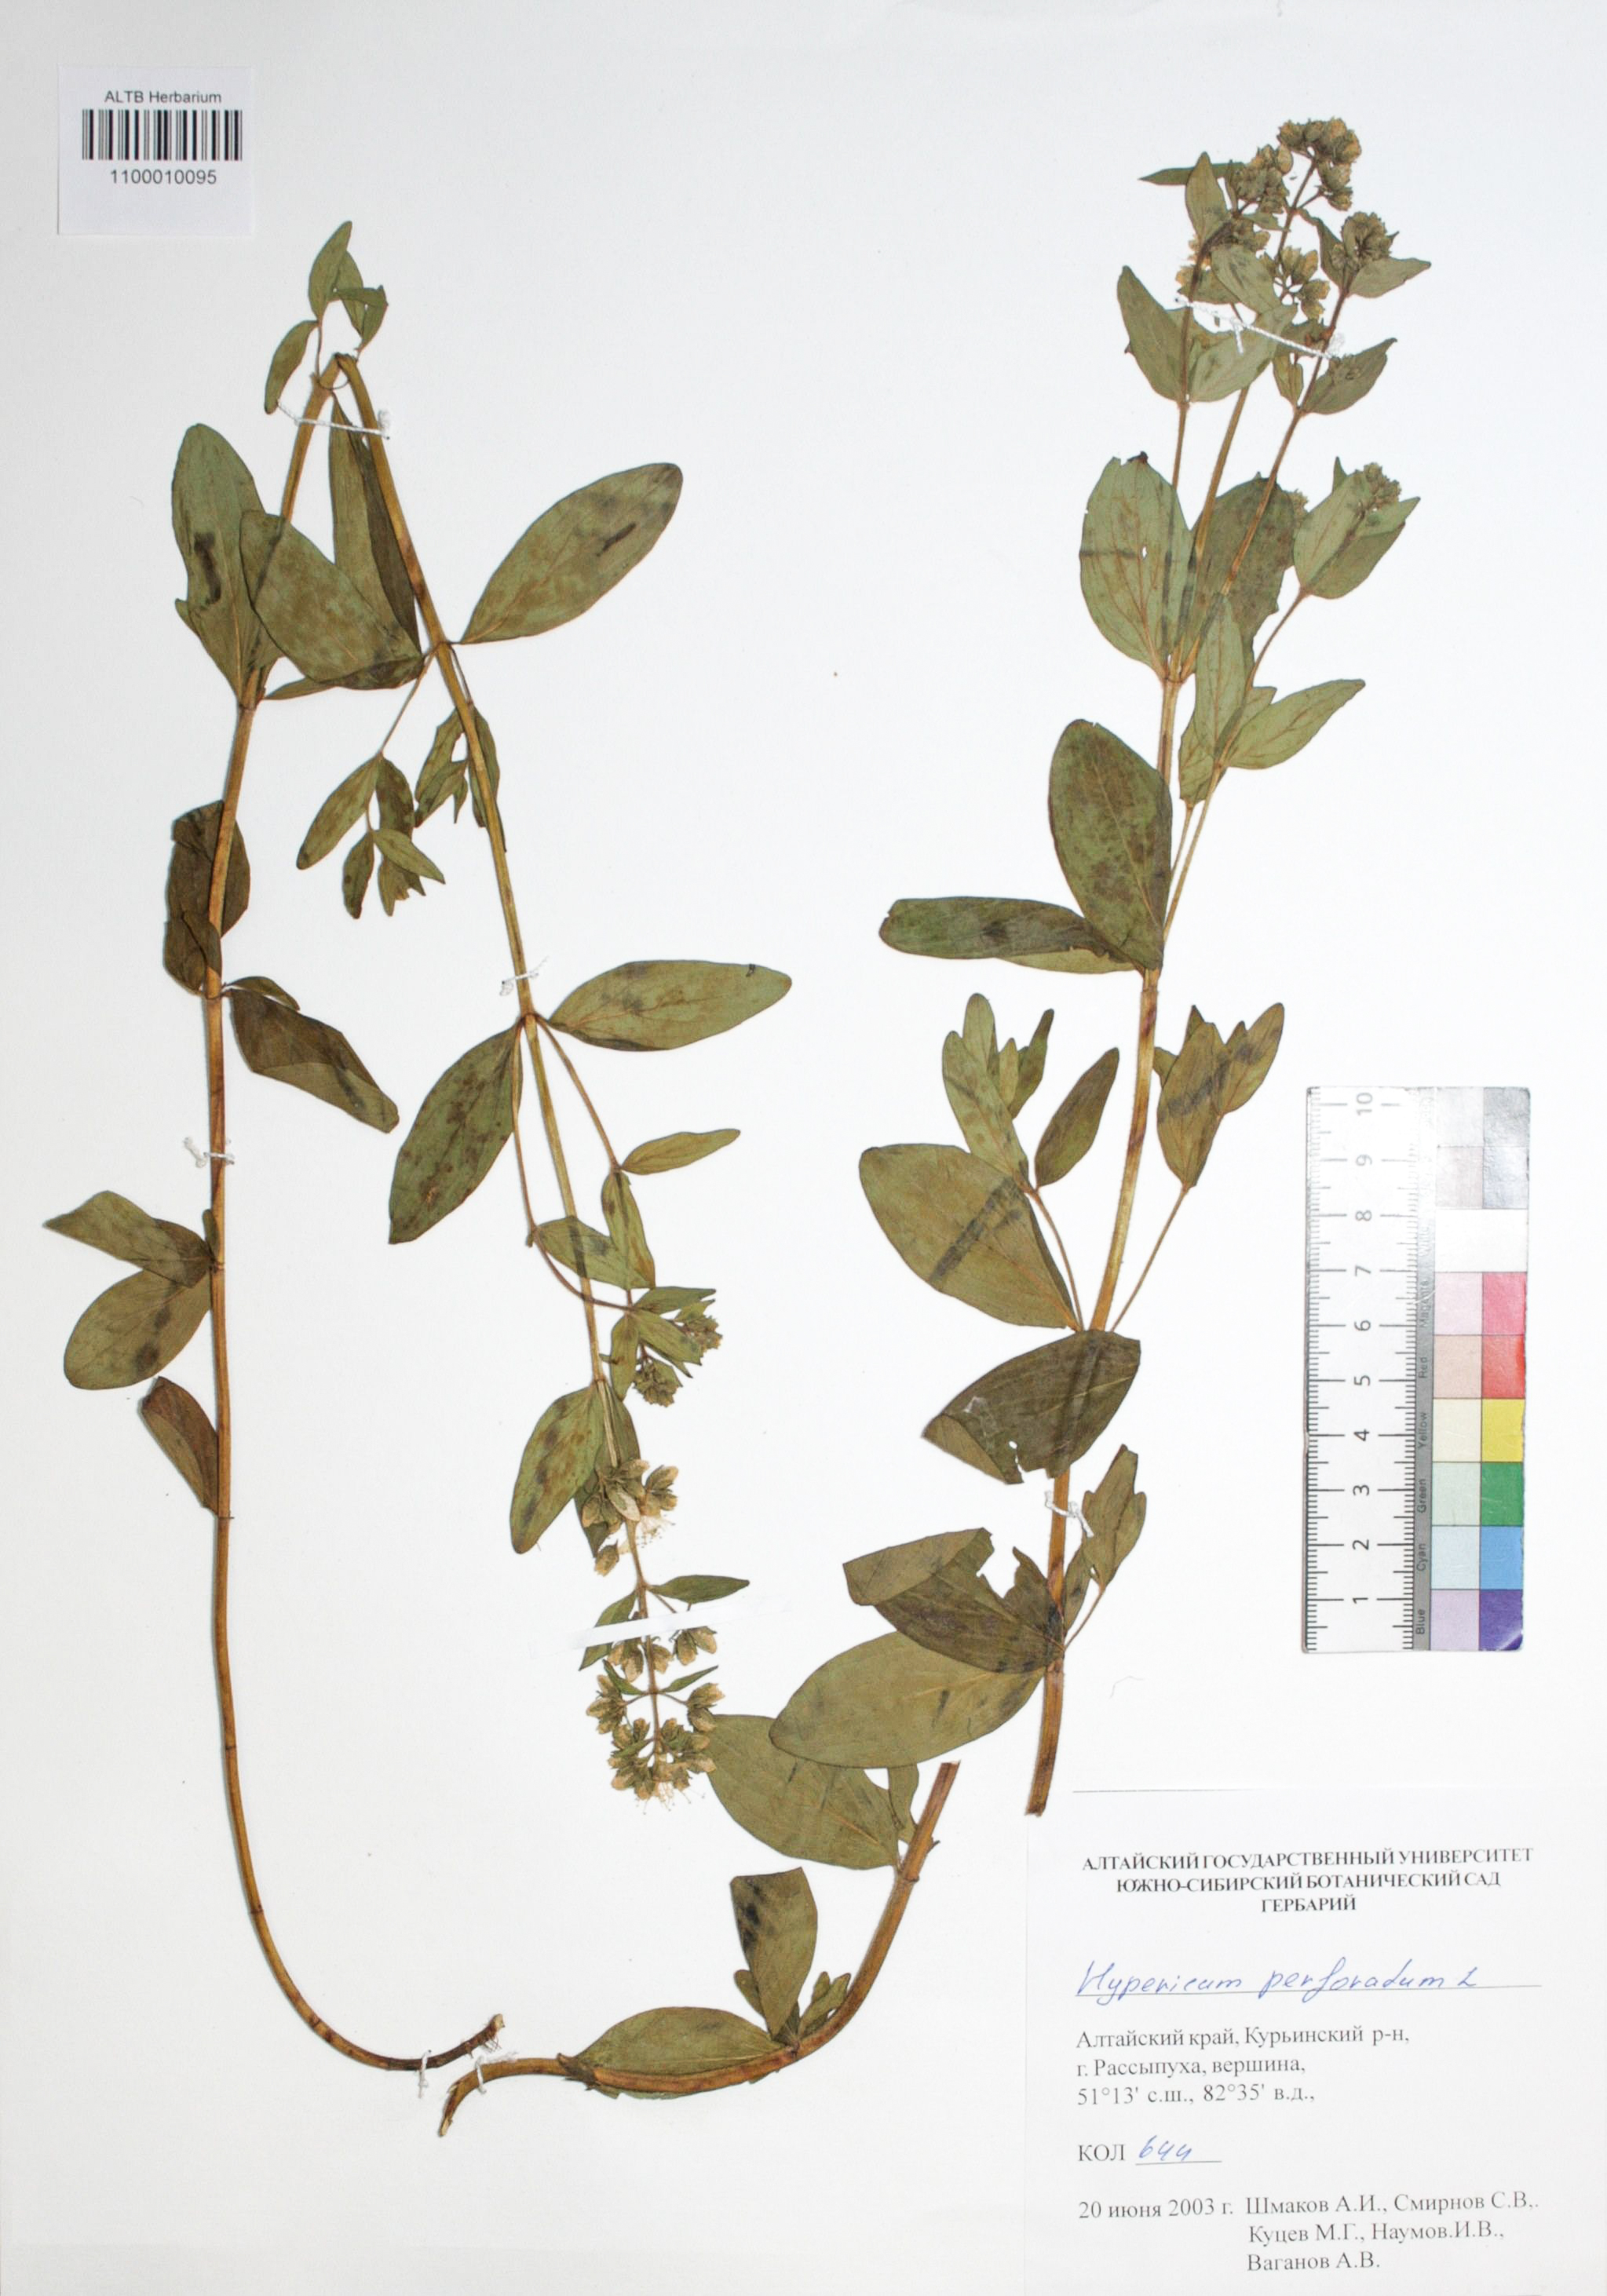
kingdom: Plantae
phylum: Tracheophyta
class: Magnoliopsida
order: Malpighiales
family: Hypericaceae
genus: Hypericum
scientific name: Hypericum perforatum
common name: Common st. johnswort
